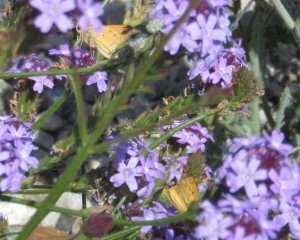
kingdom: Animalia
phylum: Arthropoda
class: Insecta
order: Lepidoptera
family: Hesperiidae
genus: Hylephila
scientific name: Hylephila phyleus
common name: Fiery Skipper
